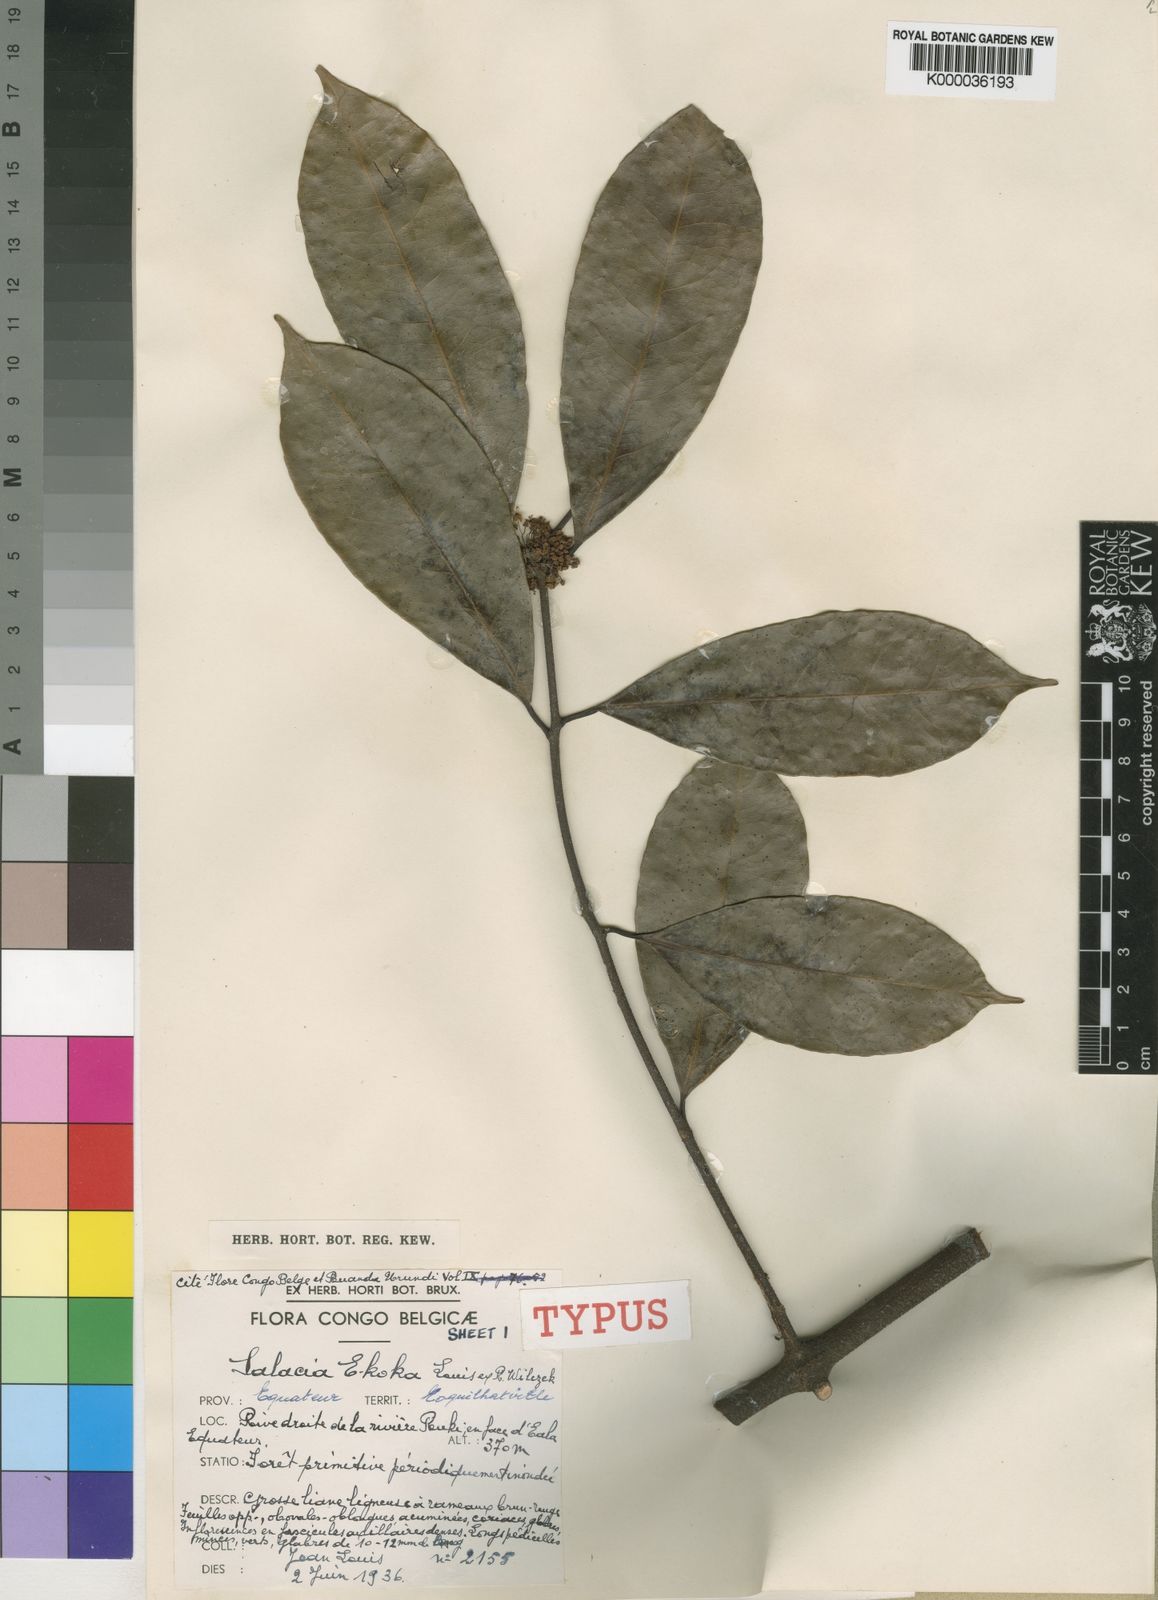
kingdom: Plantae
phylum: Tracheophyta
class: Magnoliopsida
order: Celastrales
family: Celastraceae
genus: Salacia
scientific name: Salacia
